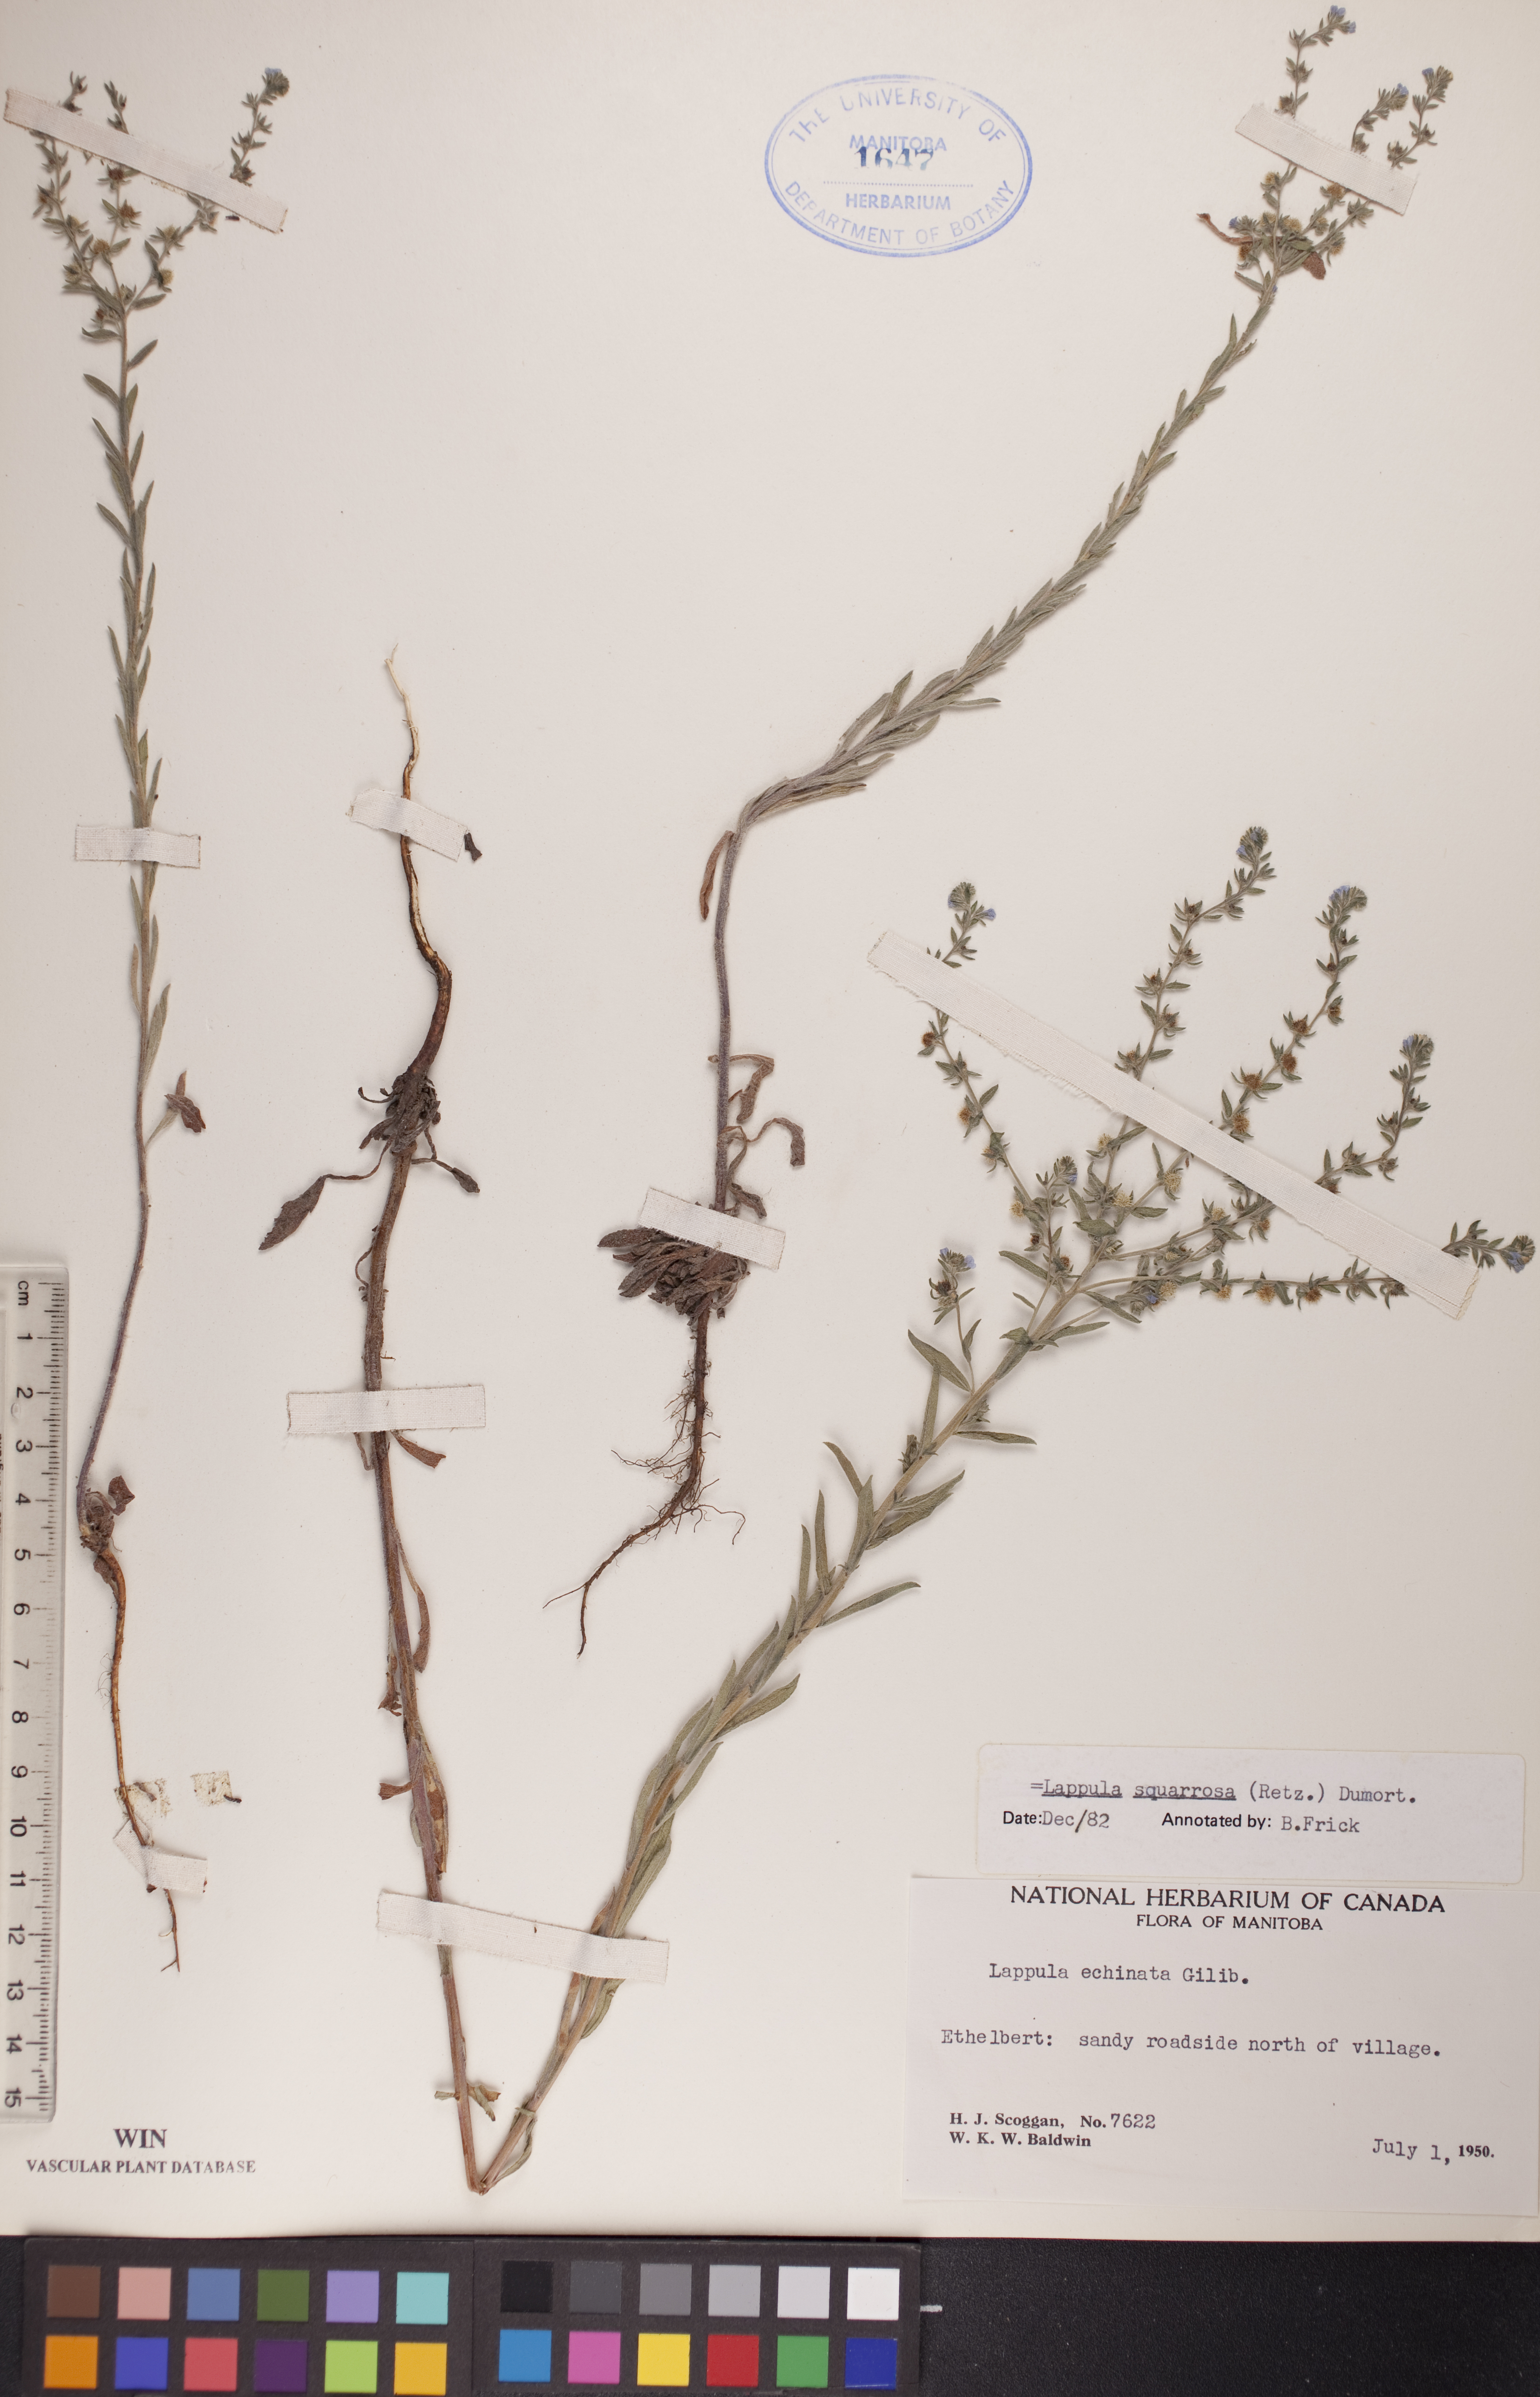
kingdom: Plantae
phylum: Tracheophyta
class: Magnoliopsida
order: Boraginales
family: Boraginaceae
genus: Lappula
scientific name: Lappula squarrosa
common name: European stickseed
